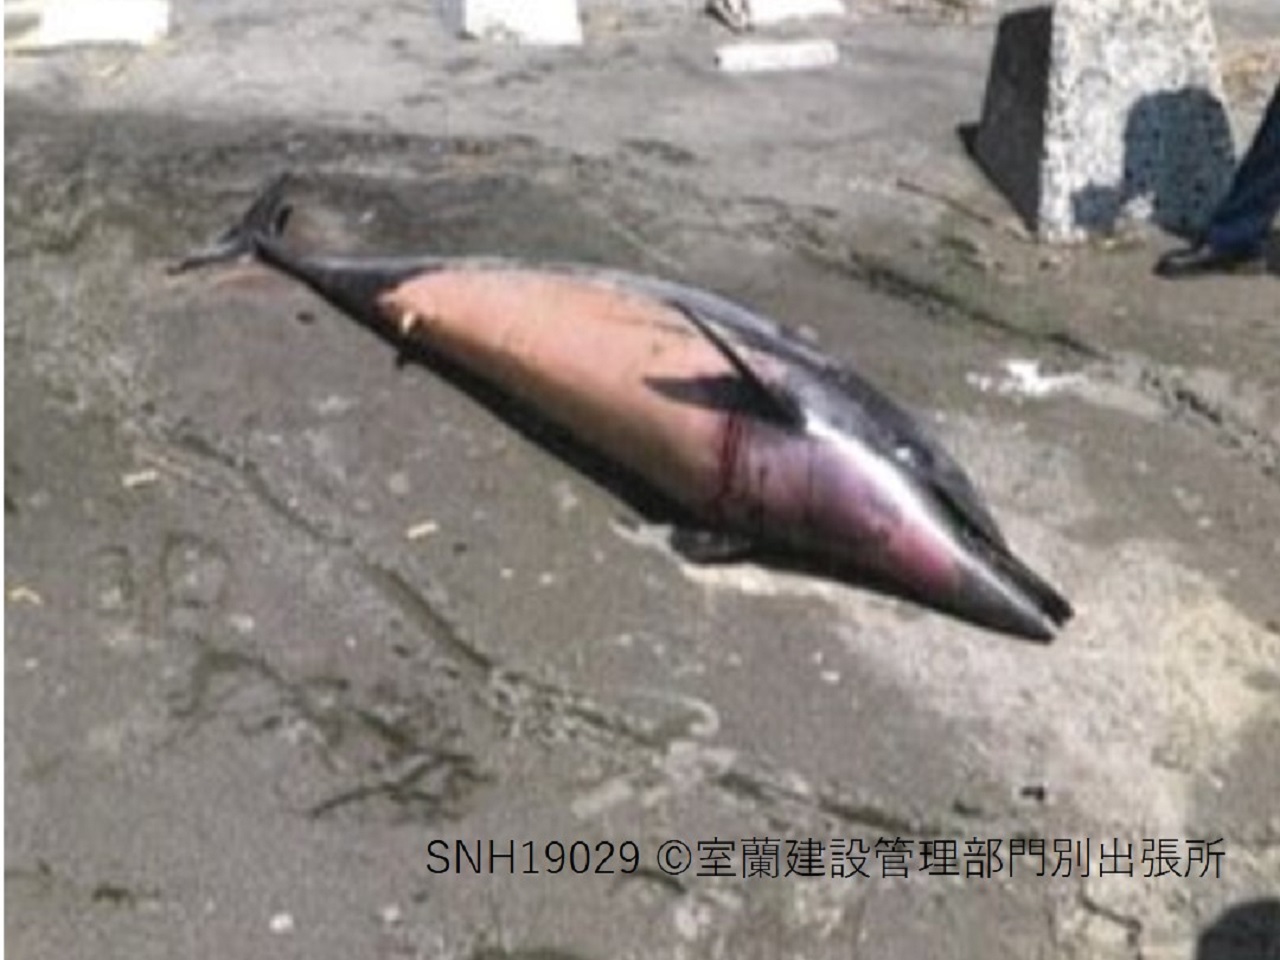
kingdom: Animalia
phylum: Chordata
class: Mammalia
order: Cetacea
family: Delphinidae
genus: Stenella
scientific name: Stenella coeruleoalba
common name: Striped dolphin
